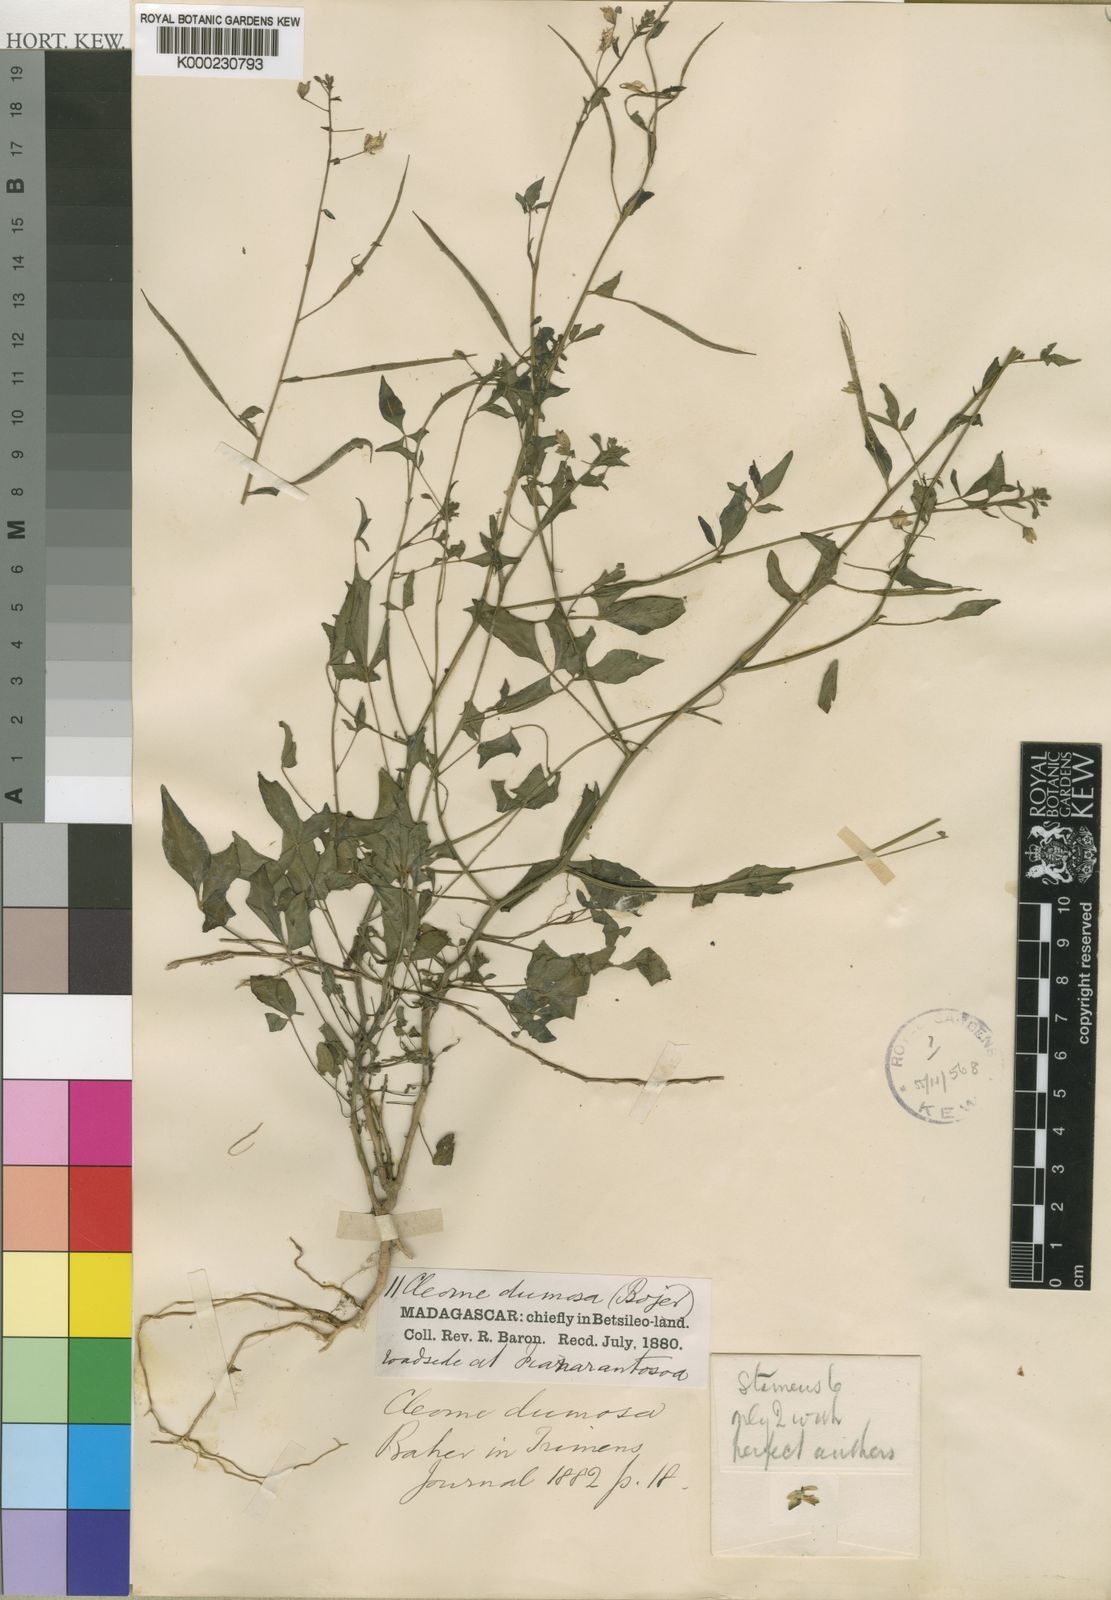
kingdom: Plantae
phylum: Tracheophyta
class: Magnoliopsida
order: Brassicales
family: Cleomaceae
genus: Sieruela
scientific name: Sieruela dumosa
